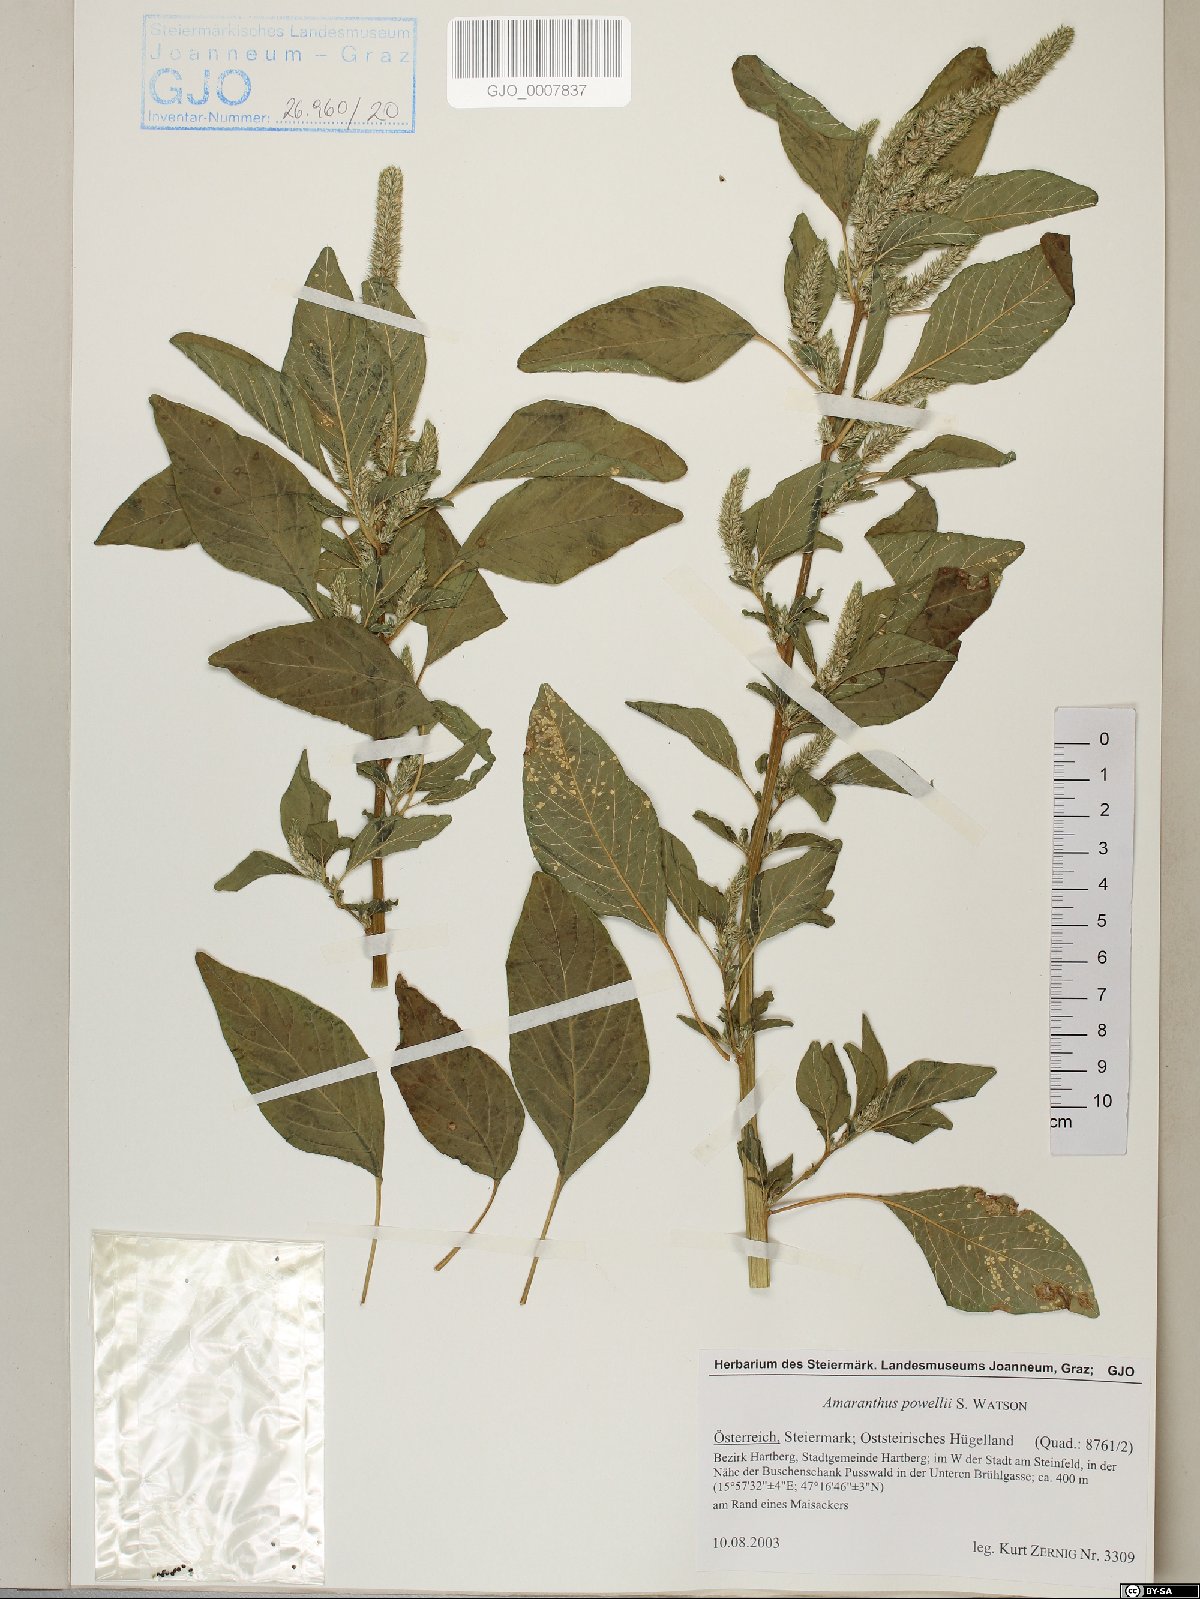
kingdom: Plantae
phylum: Tracheophyta
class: Magnoliopsida
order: Caryophyllales
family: Amaranthaceae
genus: Amaranthus
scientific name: Amaranthus powellii
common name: Powell's amaranth
